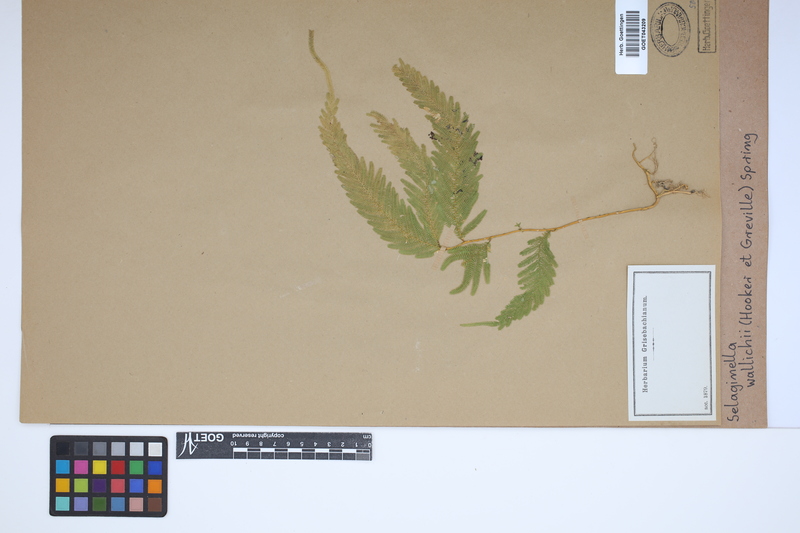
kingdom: Plantae
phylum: Tracheophyta
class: Lycopodiopsida
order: Selaginellales
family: Selaginellaceae
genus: Selaginella
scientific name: Selaginella wallichii
